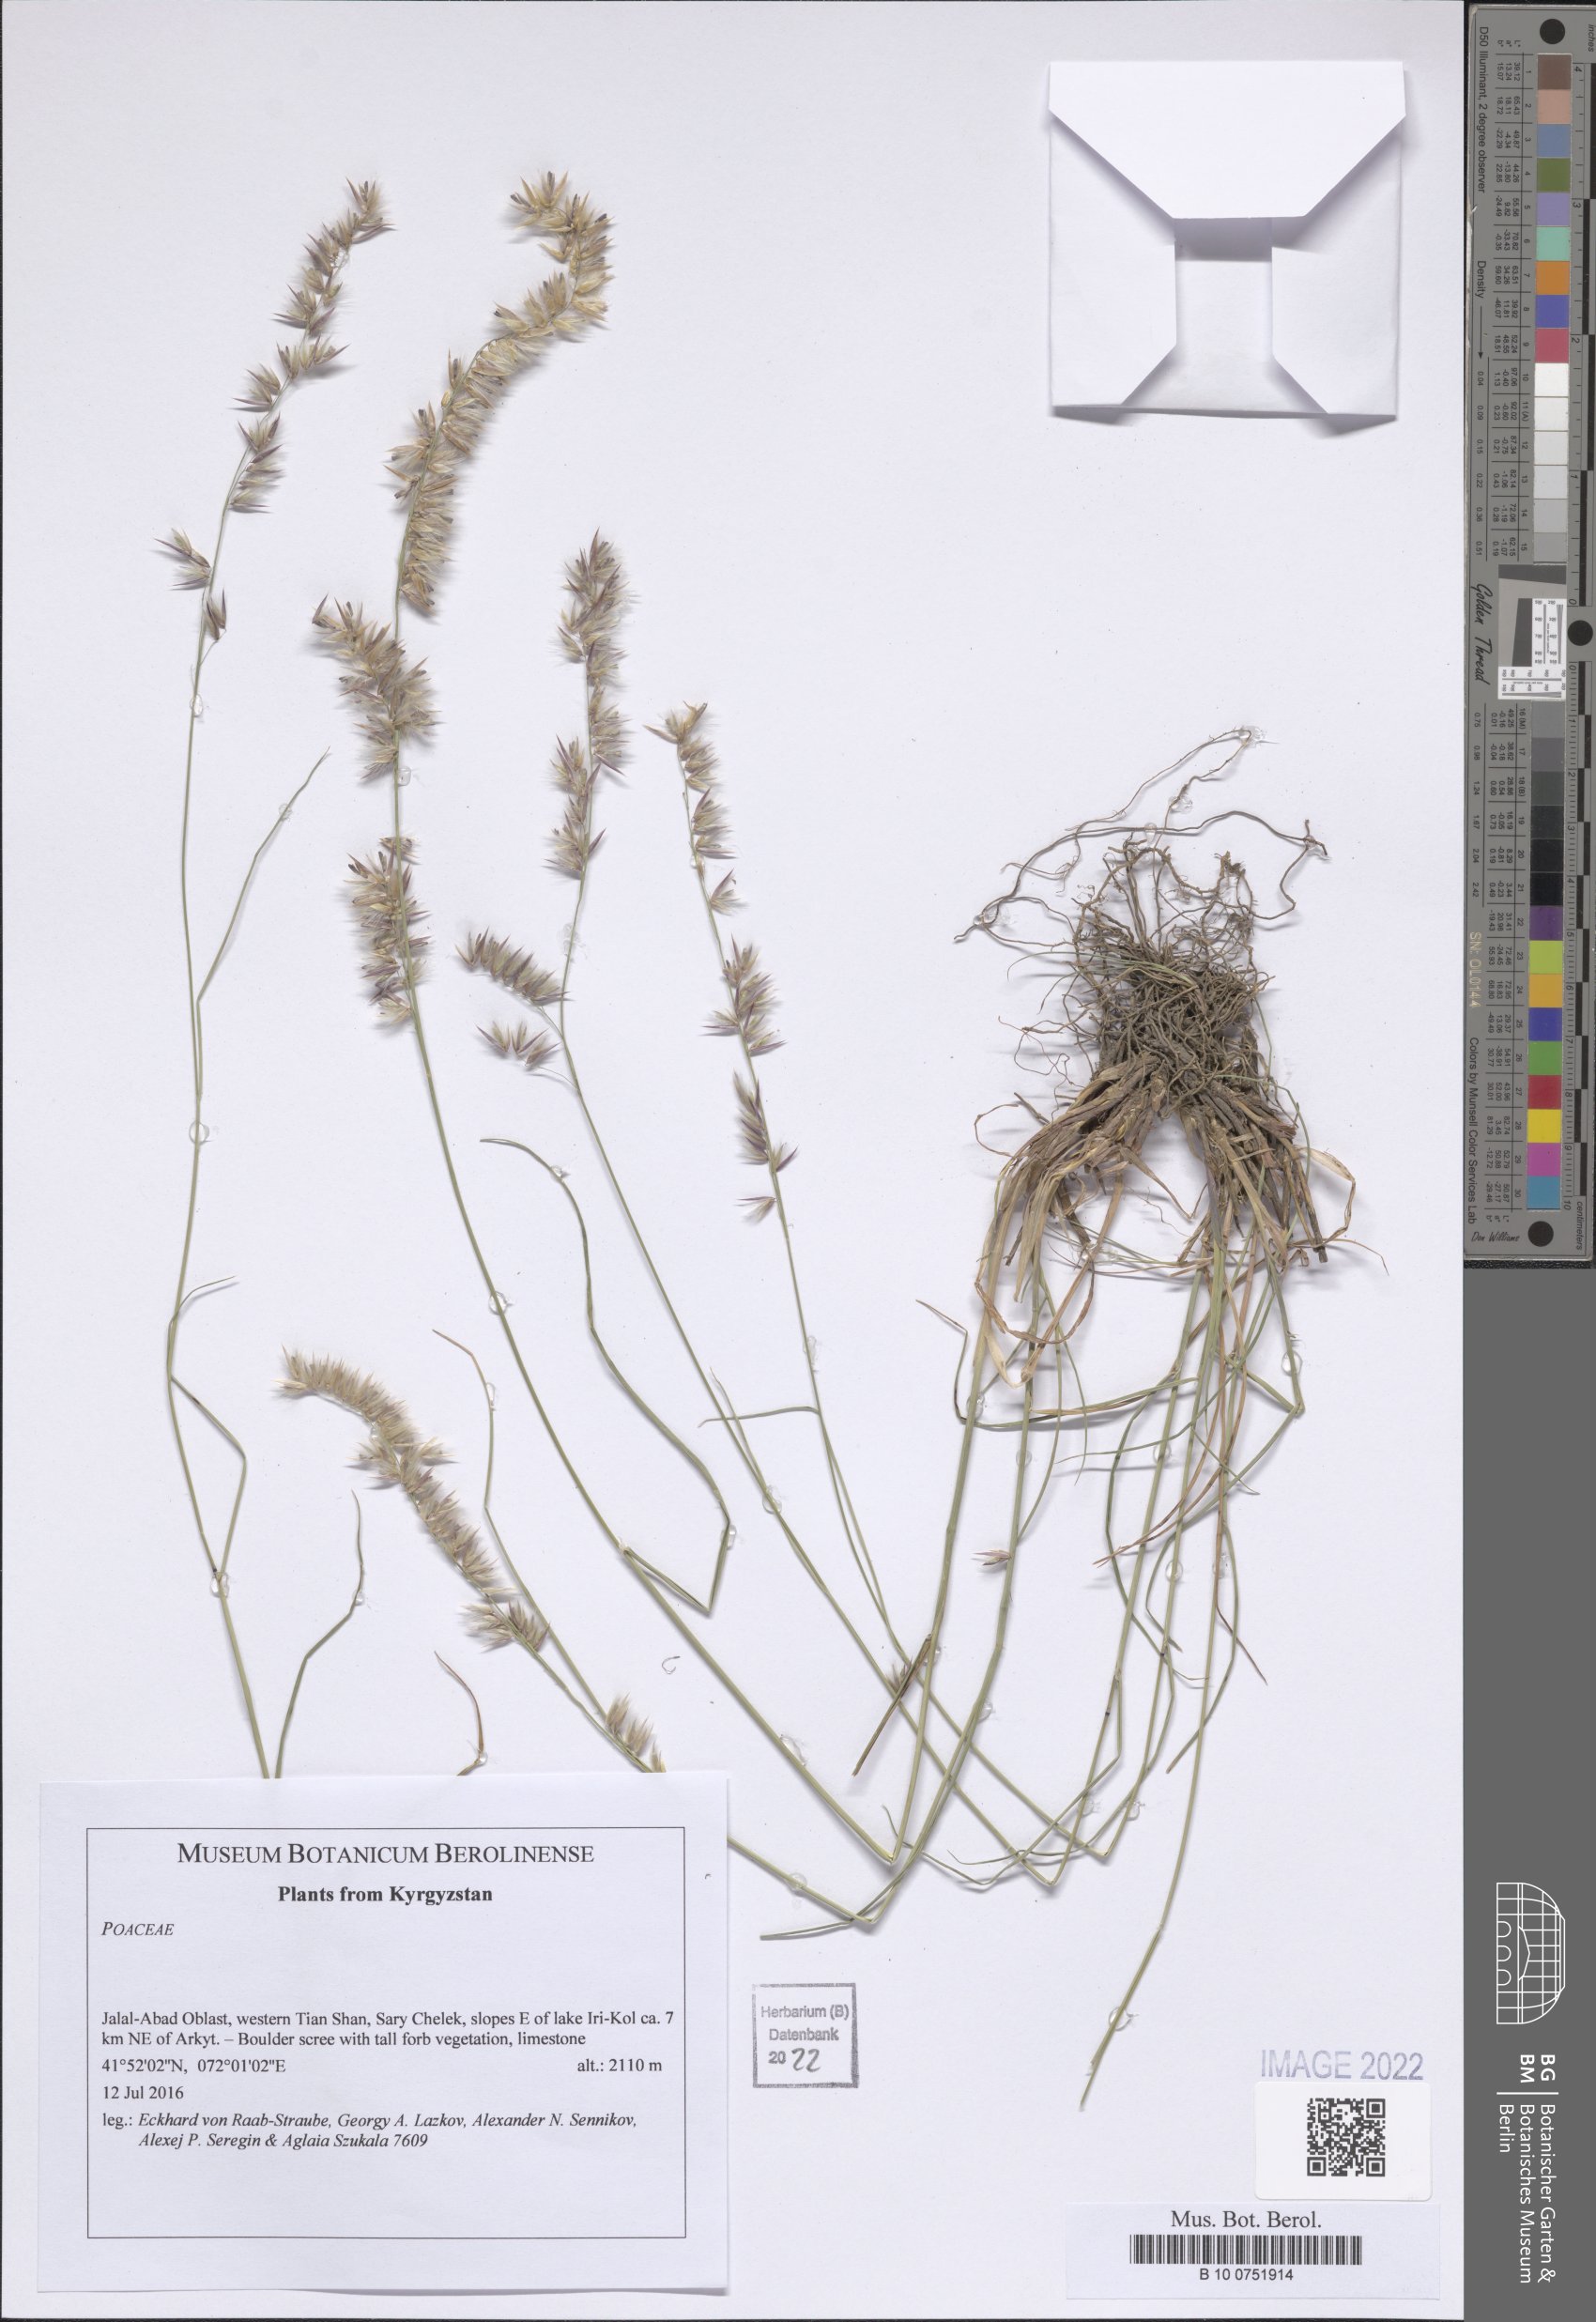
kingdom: Plantae
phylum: Tracheophyta
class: Liliopsida
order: Poales
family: Poaceae
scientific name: Poaceae
